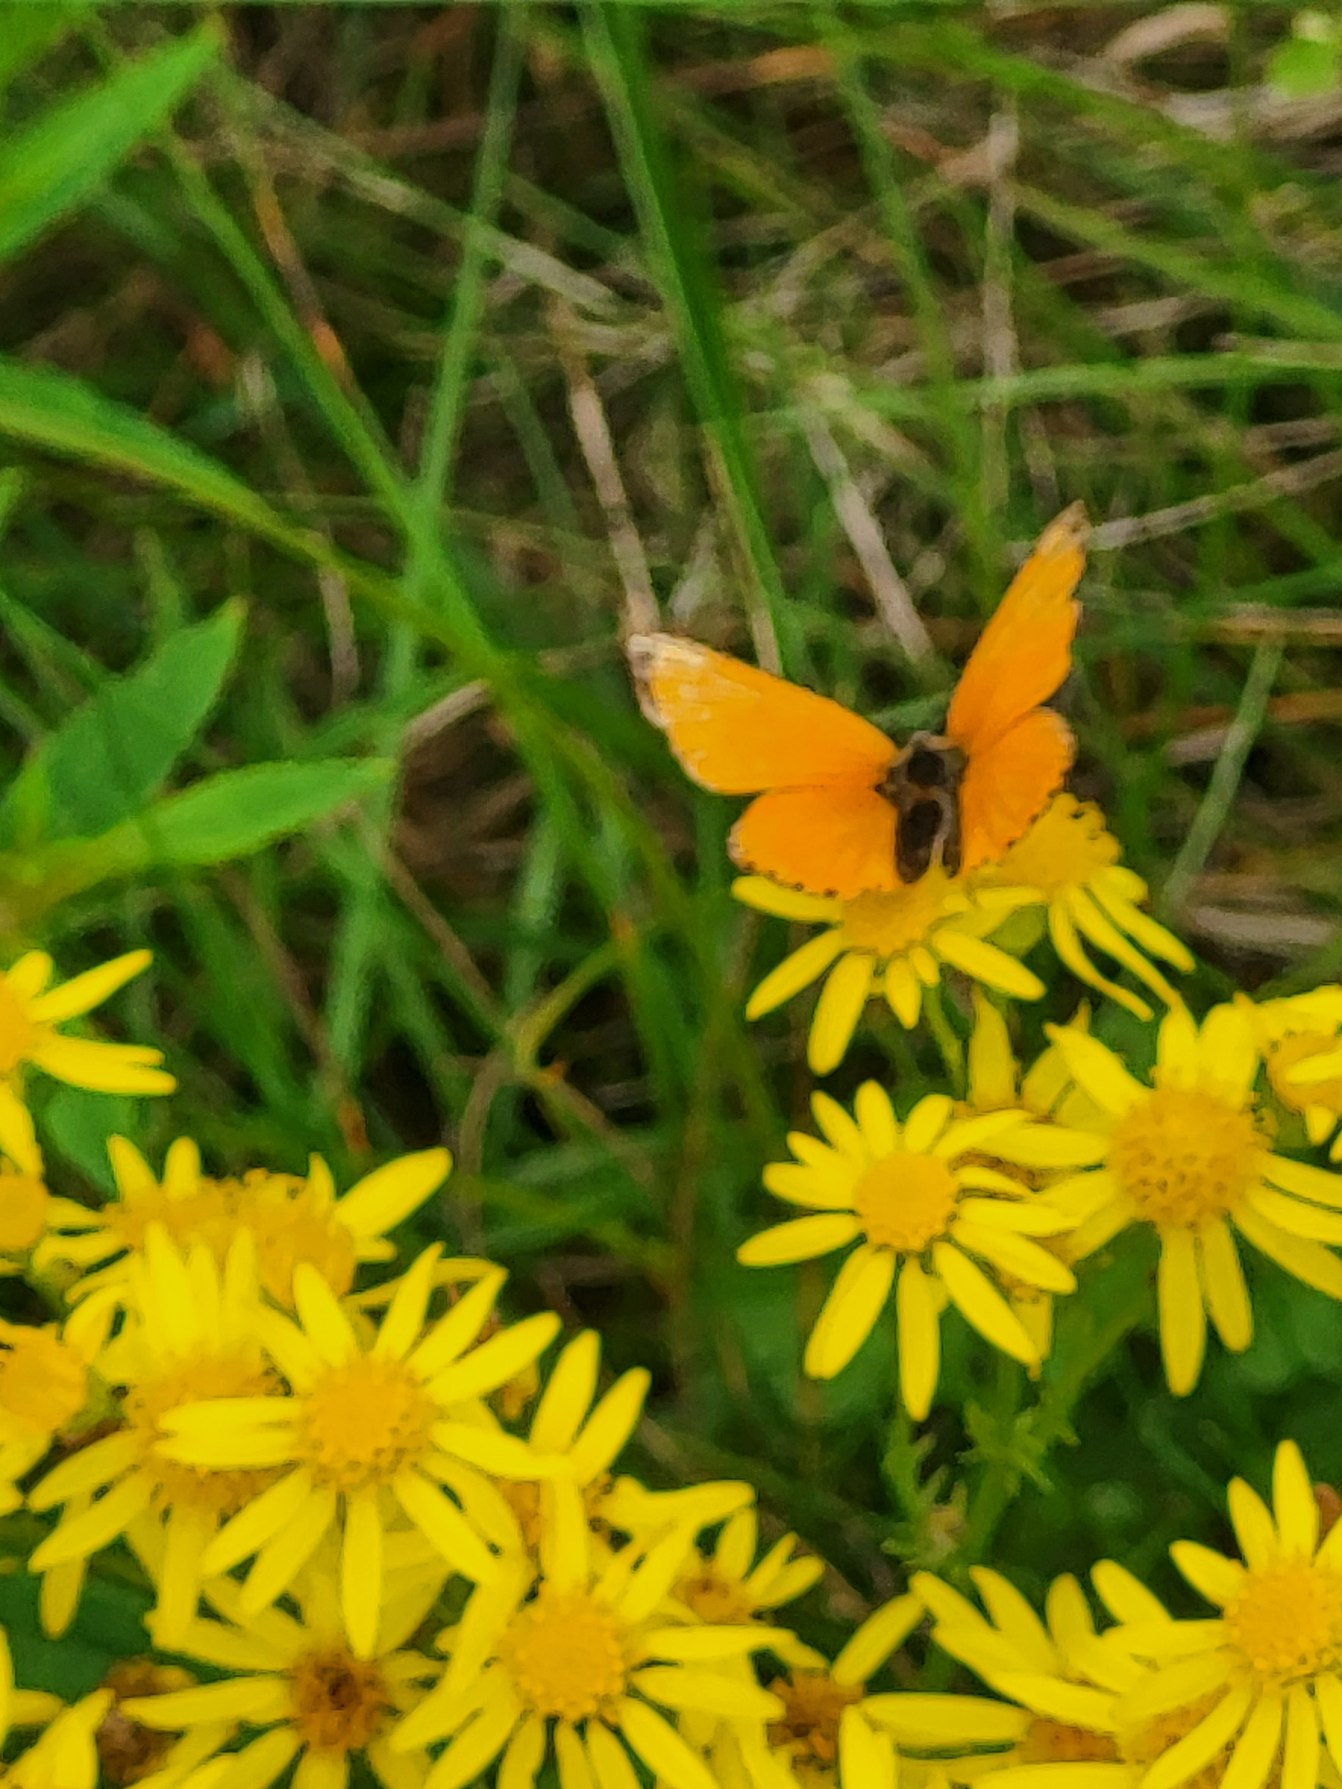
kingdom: Animalia
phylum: Arthropoda
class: Insecta
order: Lepidoptera
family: Lycaenidae
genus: Lycaena
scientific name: Lycaena virgaureae
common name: Dukatsommerfugl
